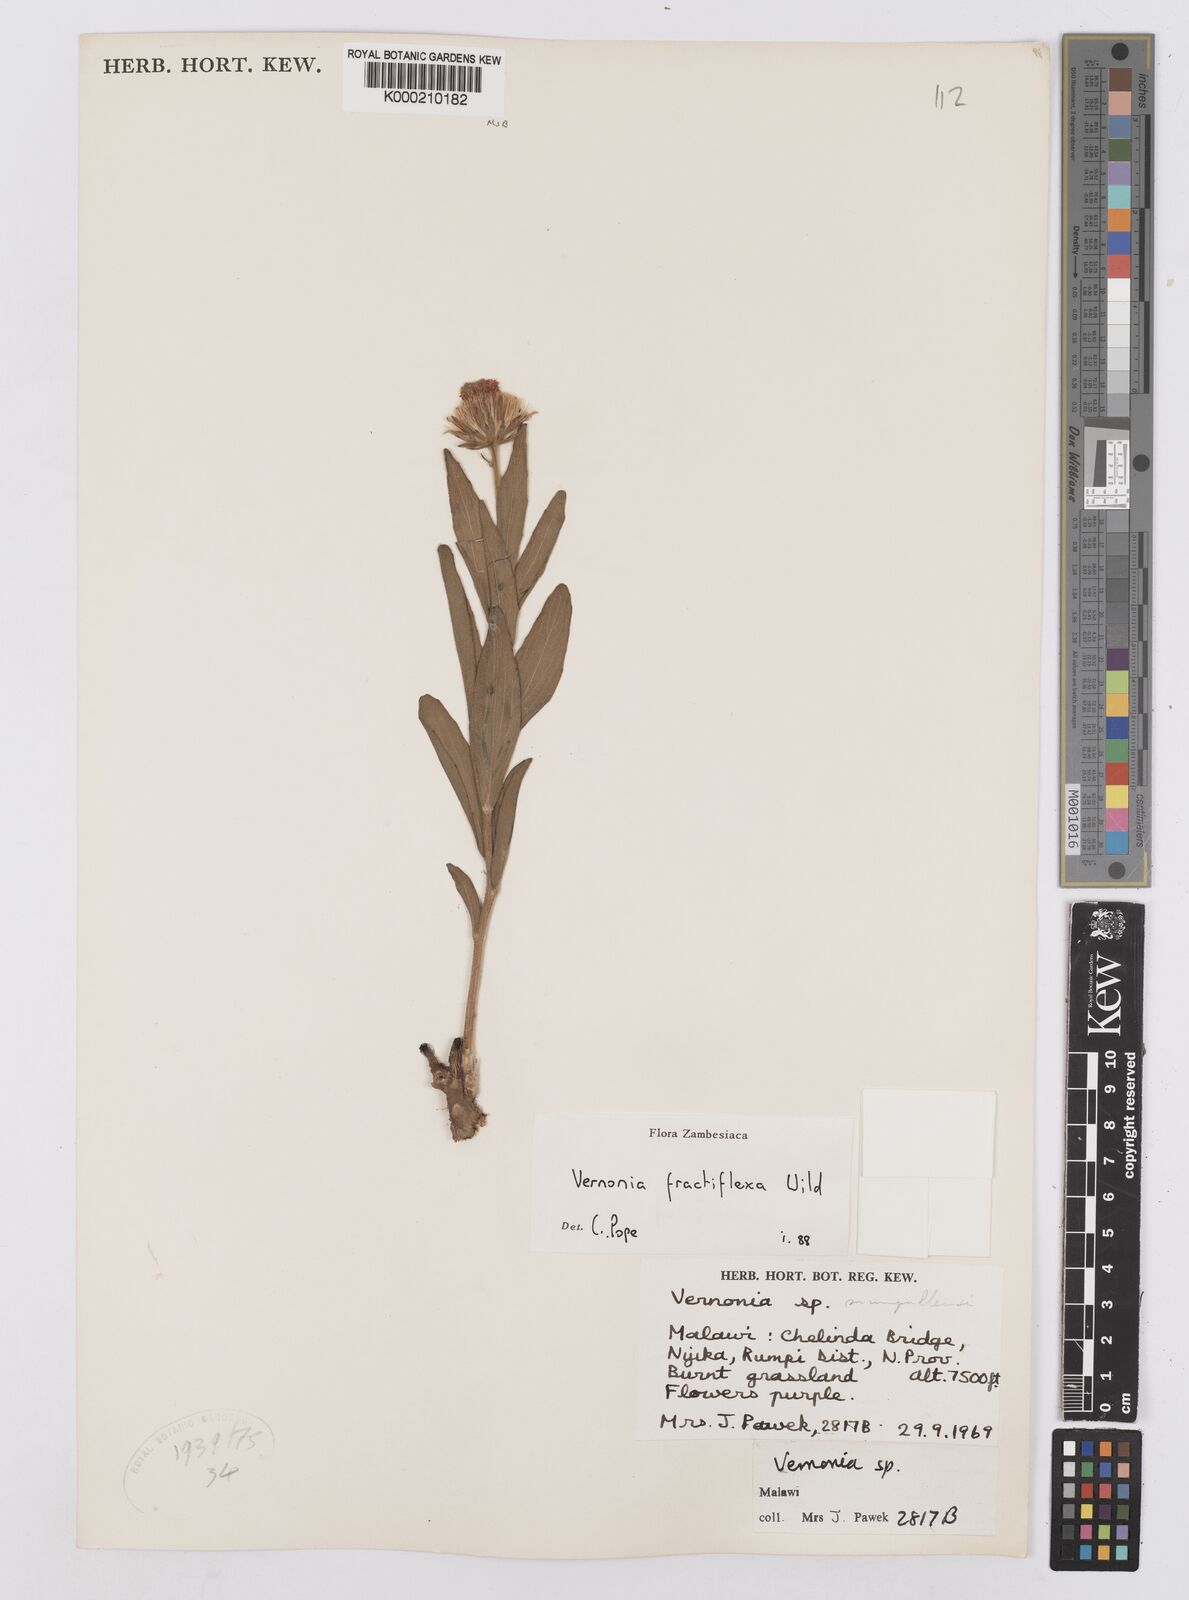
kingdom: Plantae
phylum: Tracheophyta
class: Magnoliopsida
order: Asterales
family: Asteraceae
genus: Vernonia
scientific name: Vernonia fractiflexa
